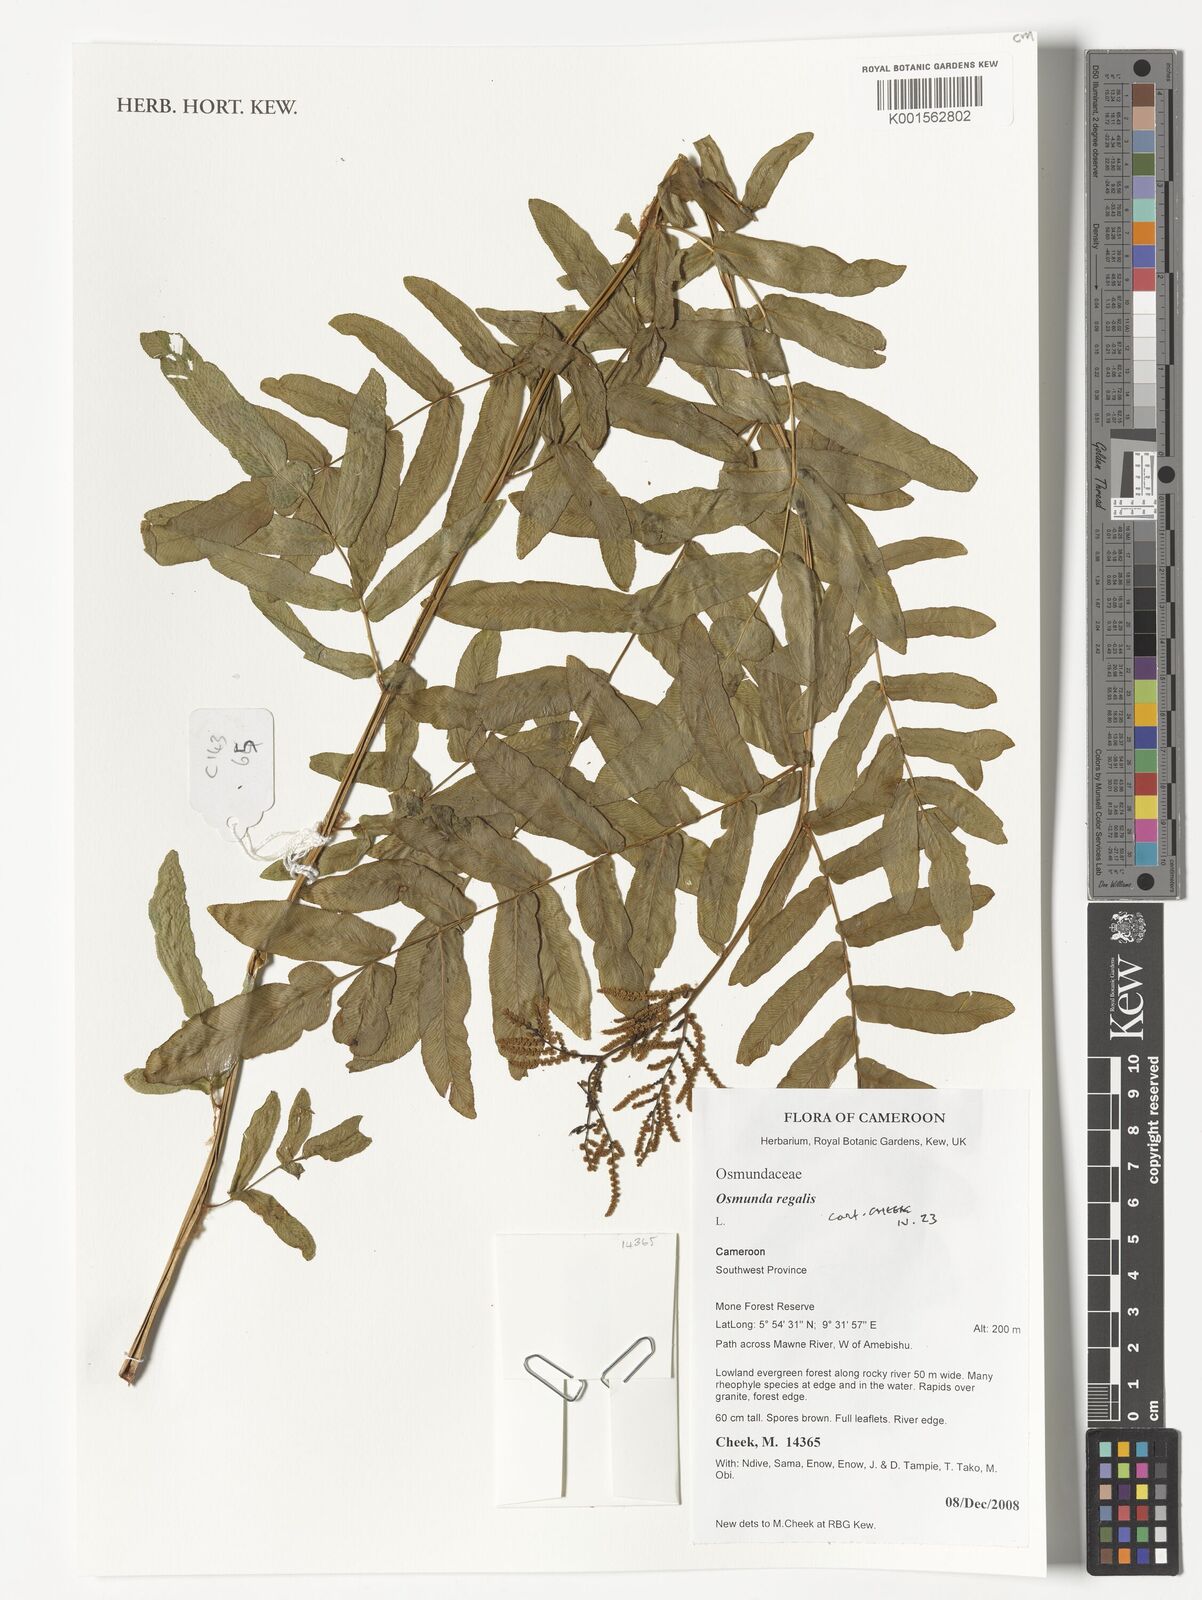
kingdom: Plantae
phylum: Tracheophyta
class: Polypodiopsida
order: Osmundales
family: Osmundaceae
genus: Osmunda
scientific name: Osmunda regalis
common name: Royal fern
